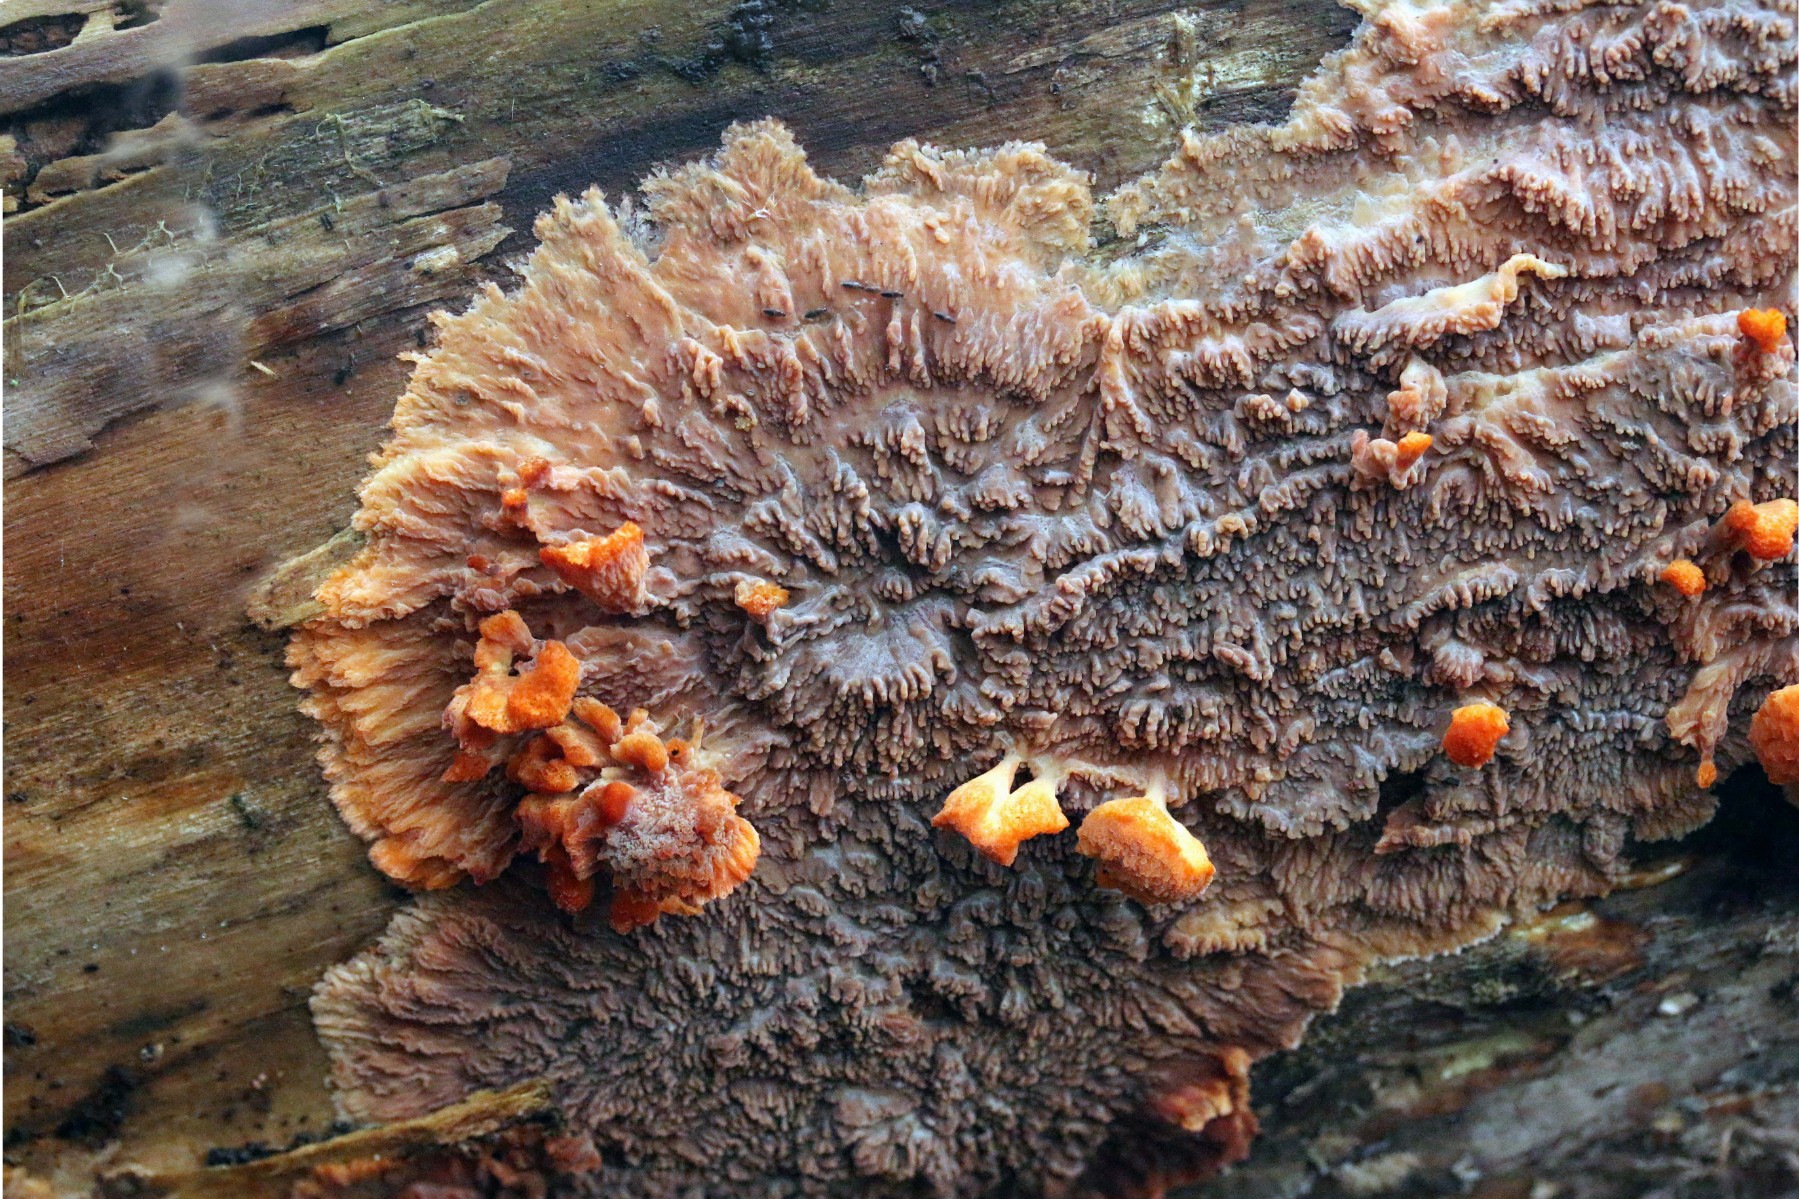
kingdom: Fungi
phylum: Basidiomycota
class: Agaricomycetes
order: Polyporales
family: Meruliaceae
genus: Phlebia
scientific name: Phlebia radiata
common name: stråle-åresvamp
